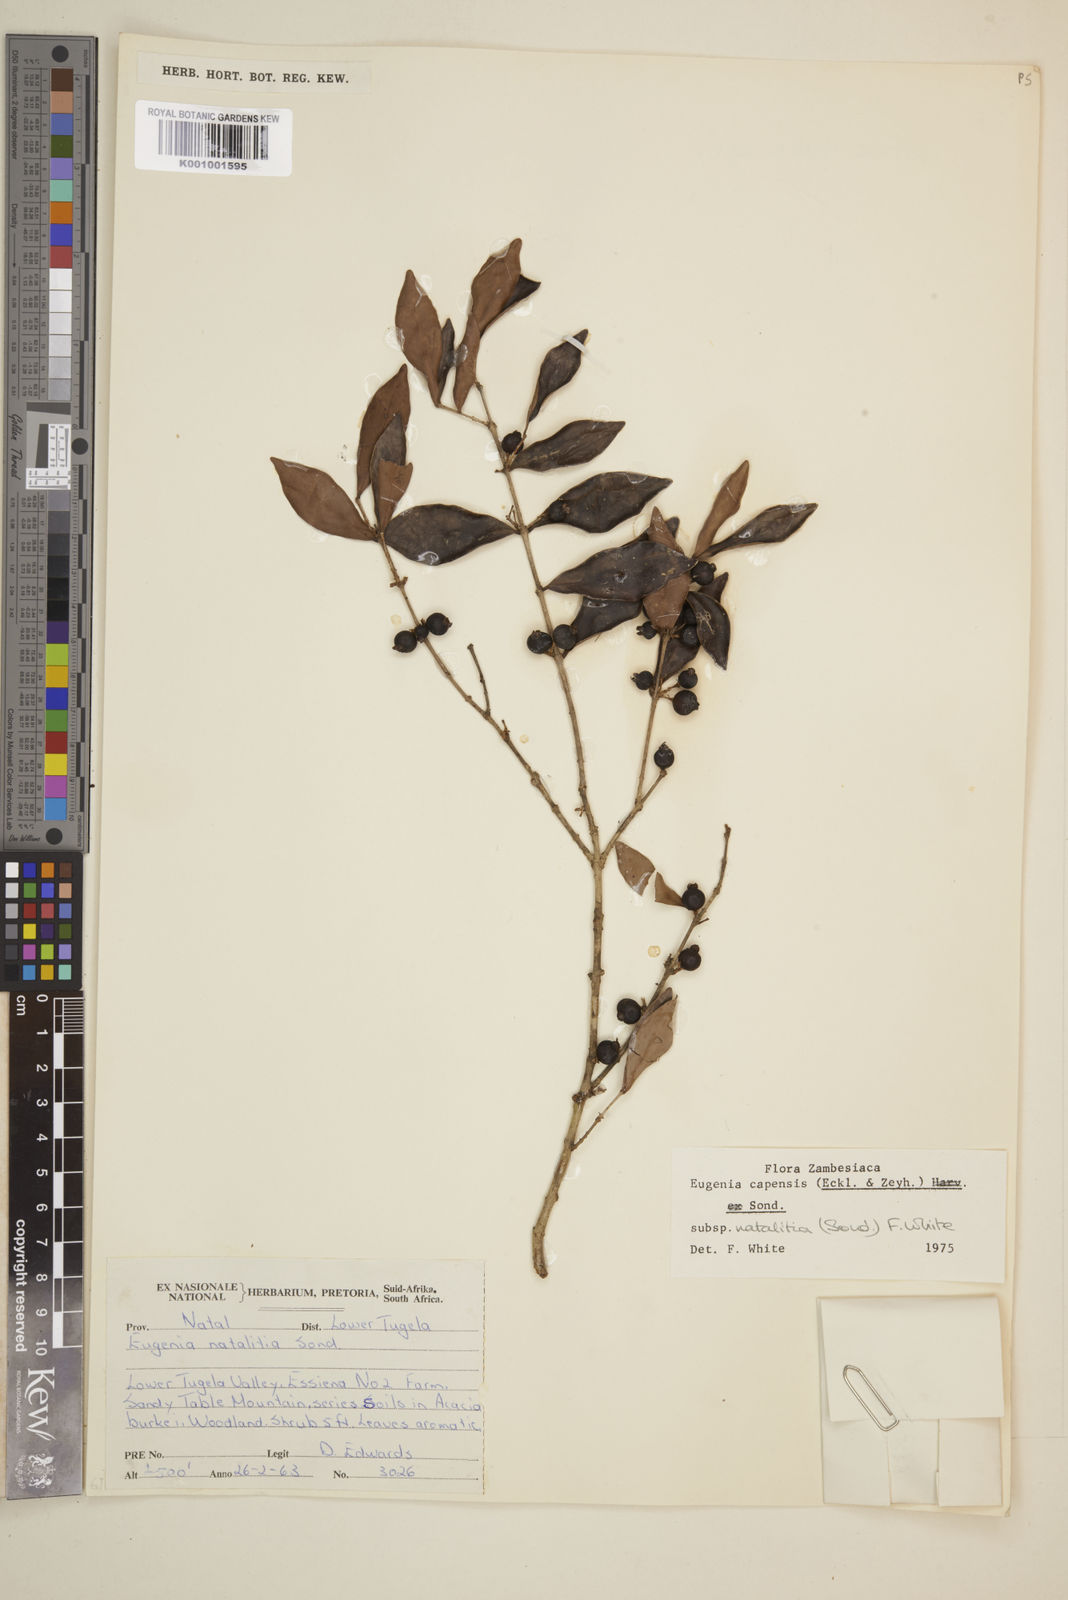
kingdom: Plantae
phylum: Tracheophyta
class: Magnoliopsida
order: Myrtales
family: Myrtaceae
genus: Eugenia
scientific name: Eugenia natalitia
